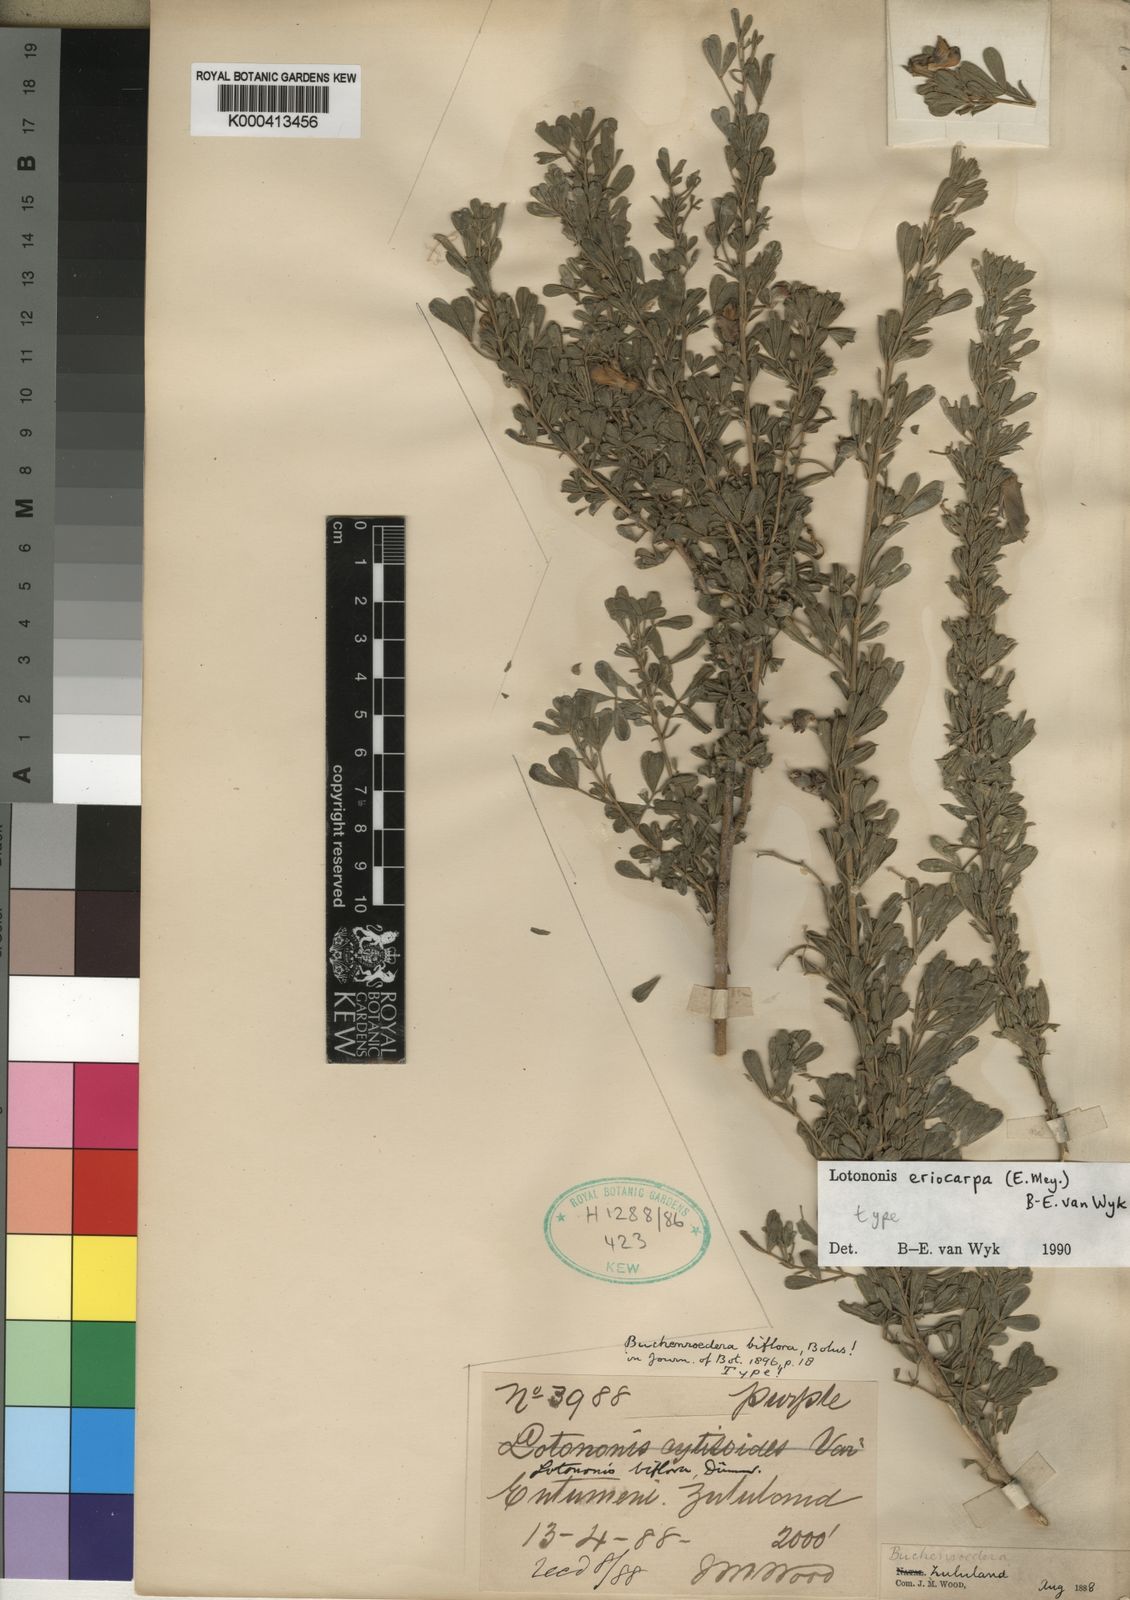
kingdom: Plantae
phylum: Tracheophyta
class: Magnoliopsida
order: Fabales
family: Fabaceae
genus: Lotononis
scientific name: Lotononis eriocarpa
